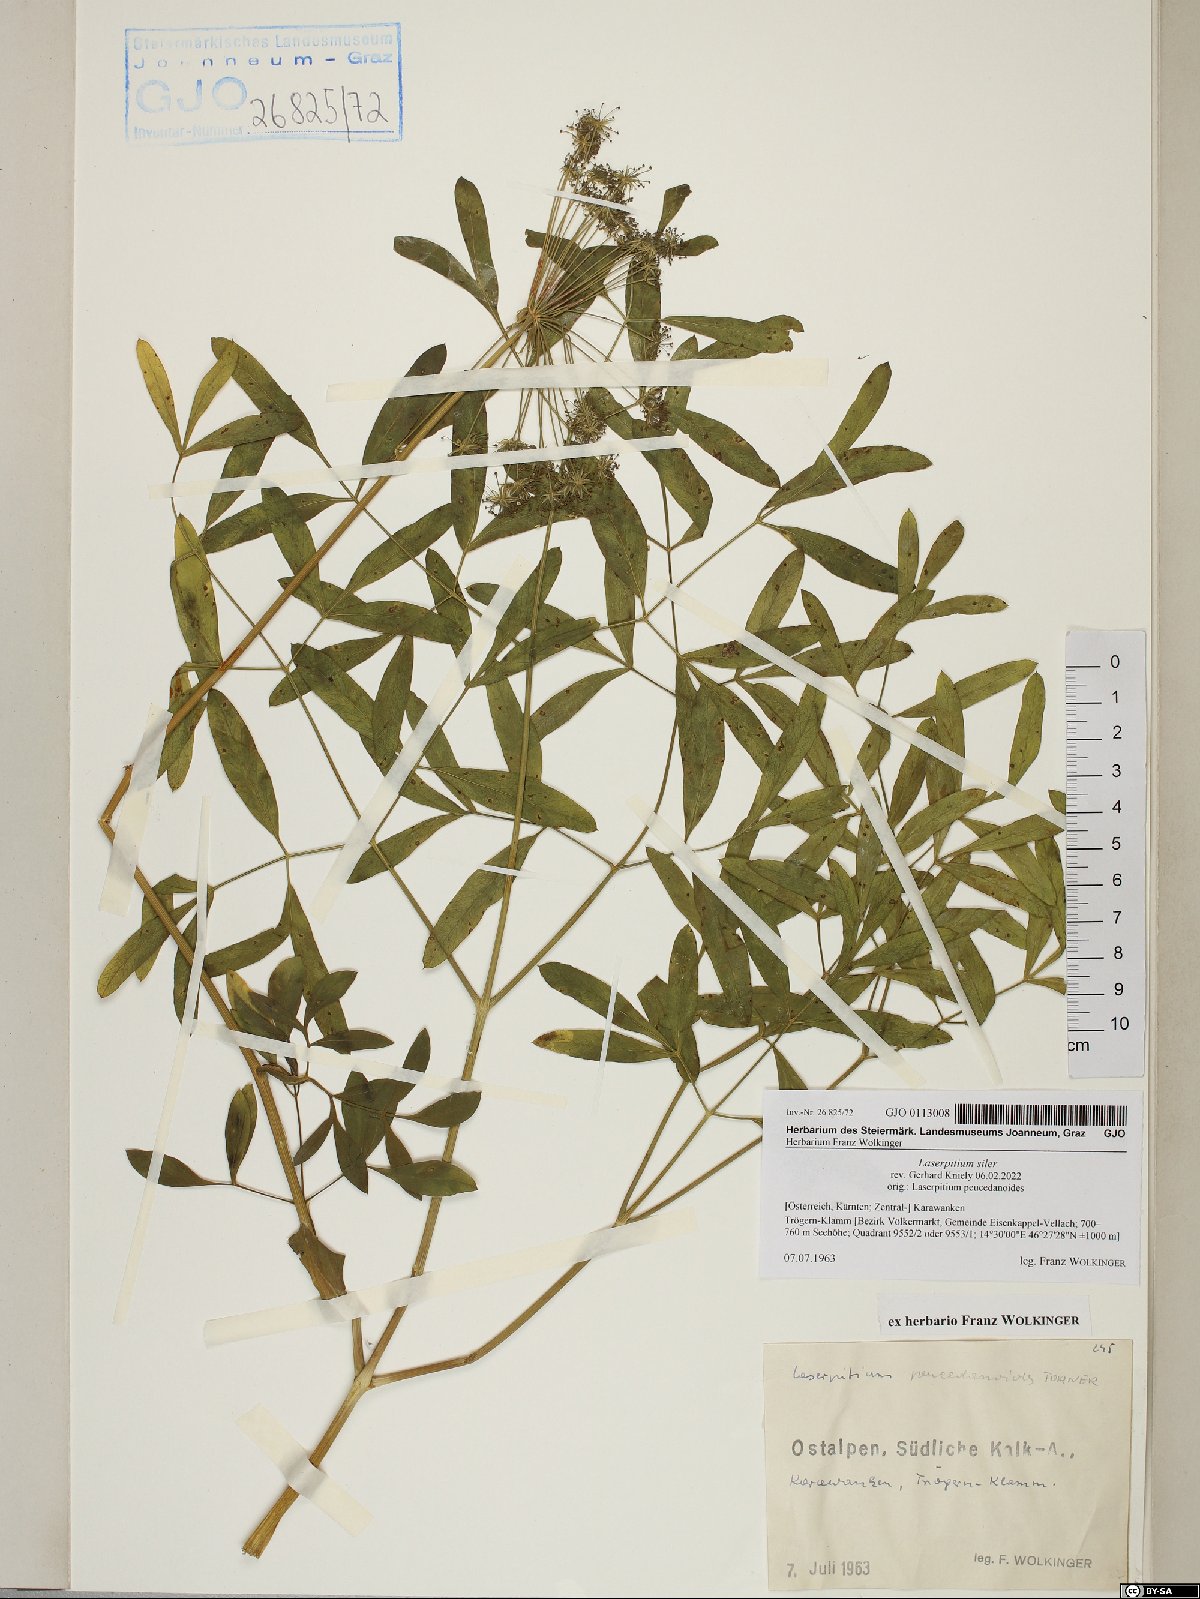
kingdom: Plantae
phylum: Tracheophyta
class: Magnoliopsida
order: Apiales
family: Apiaceae
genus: Siler
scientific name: Siler montanum
